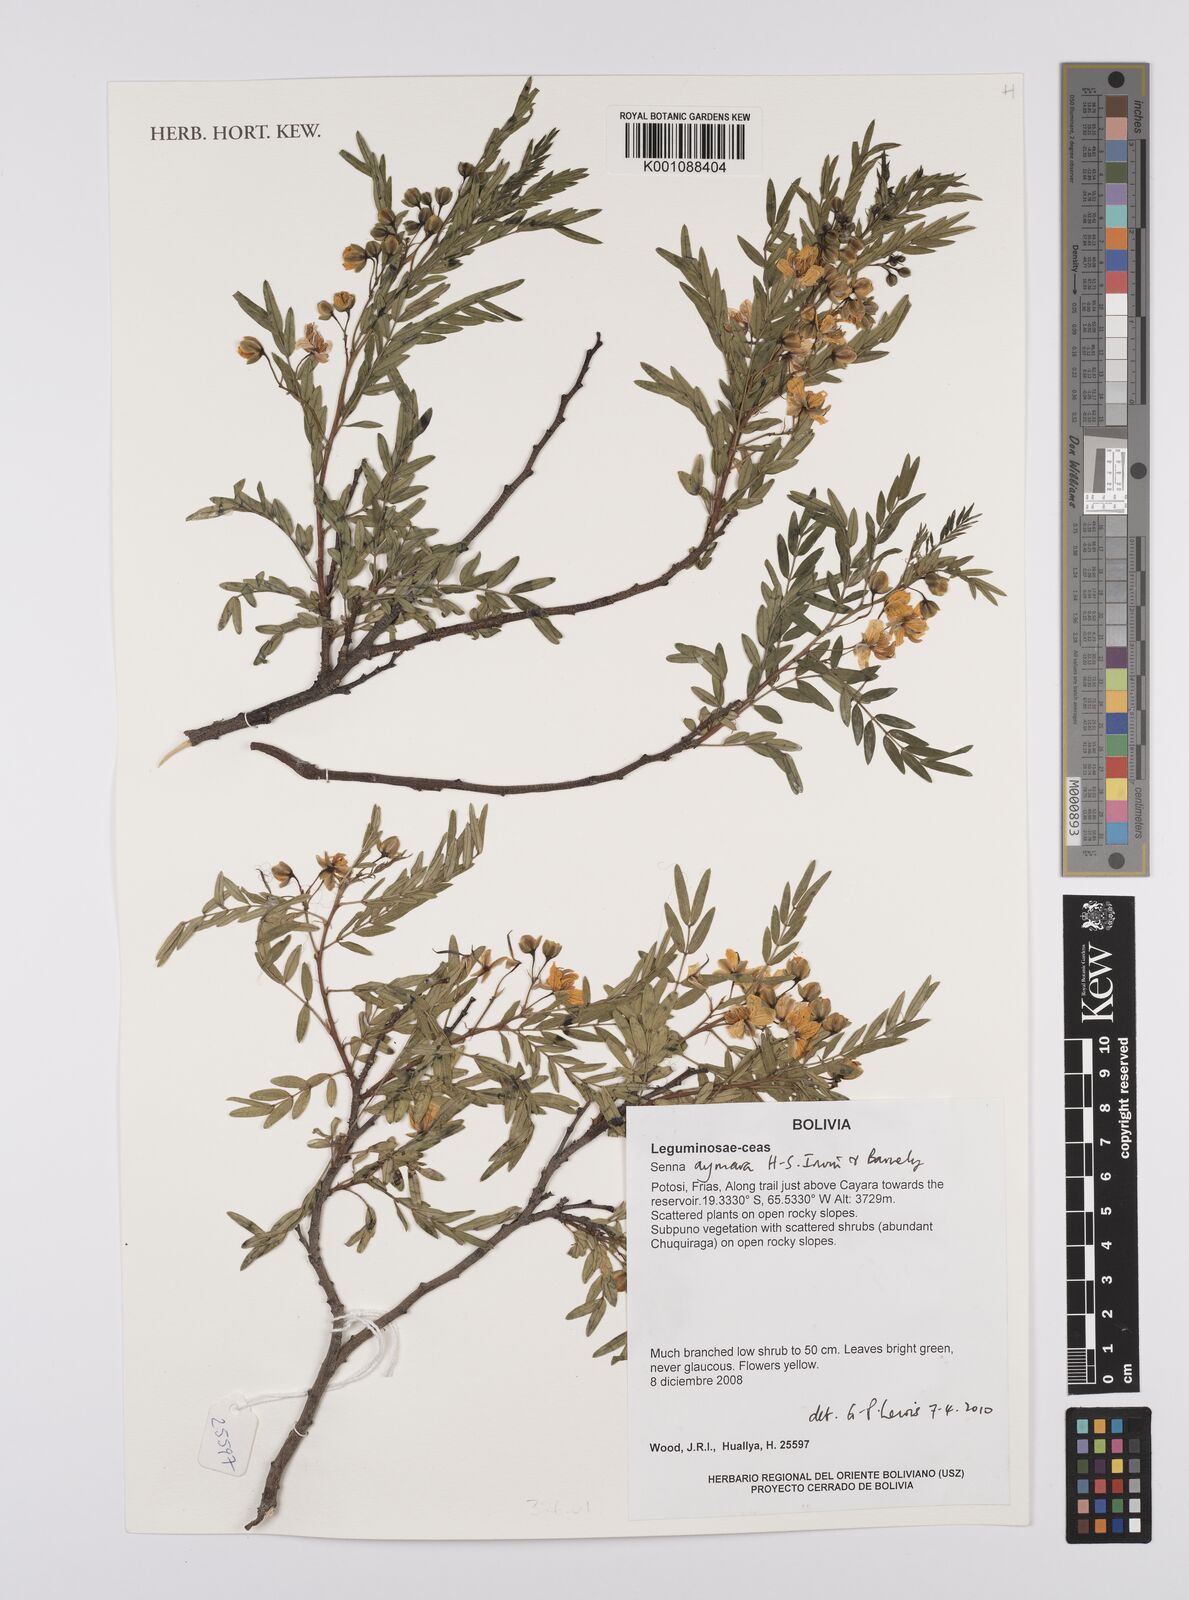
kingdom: Plantae
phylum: Tracheophyta
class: Magnoliopsida
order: Fabales
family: Fabaceae
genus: Senna
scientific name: Senna aymara
